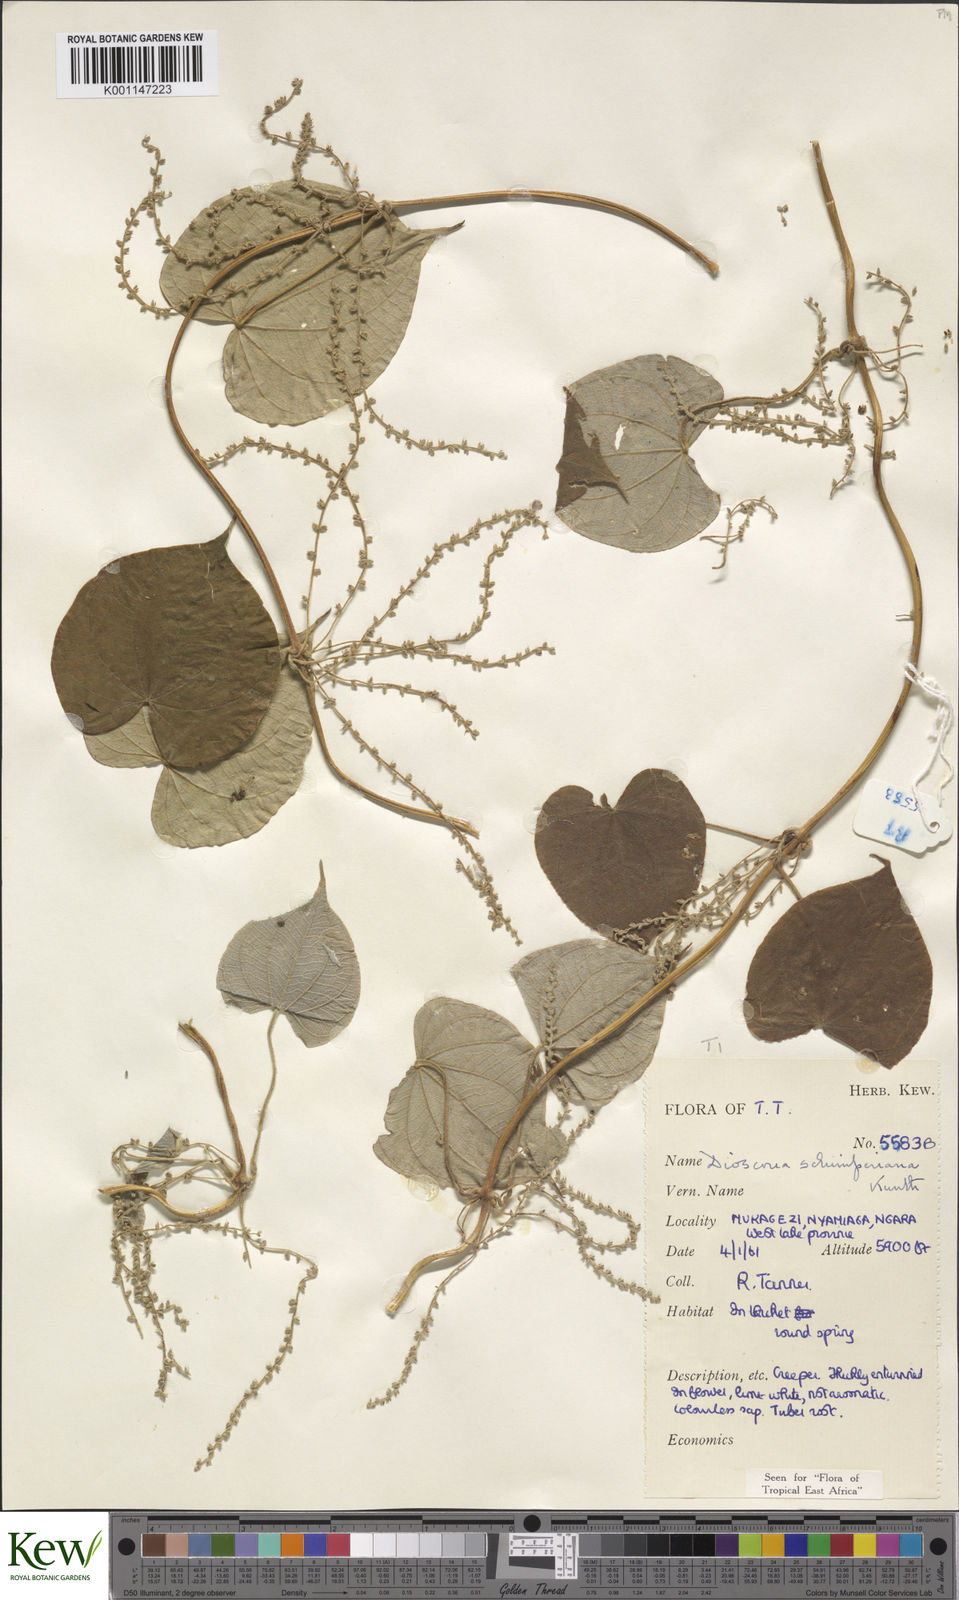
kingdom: Plantae
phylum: Tracheophyta
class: Liliopsida
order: Dioscoreales
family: Dioscoreaceae
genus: Dioscorea
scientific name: Dioscorea schimperiana
